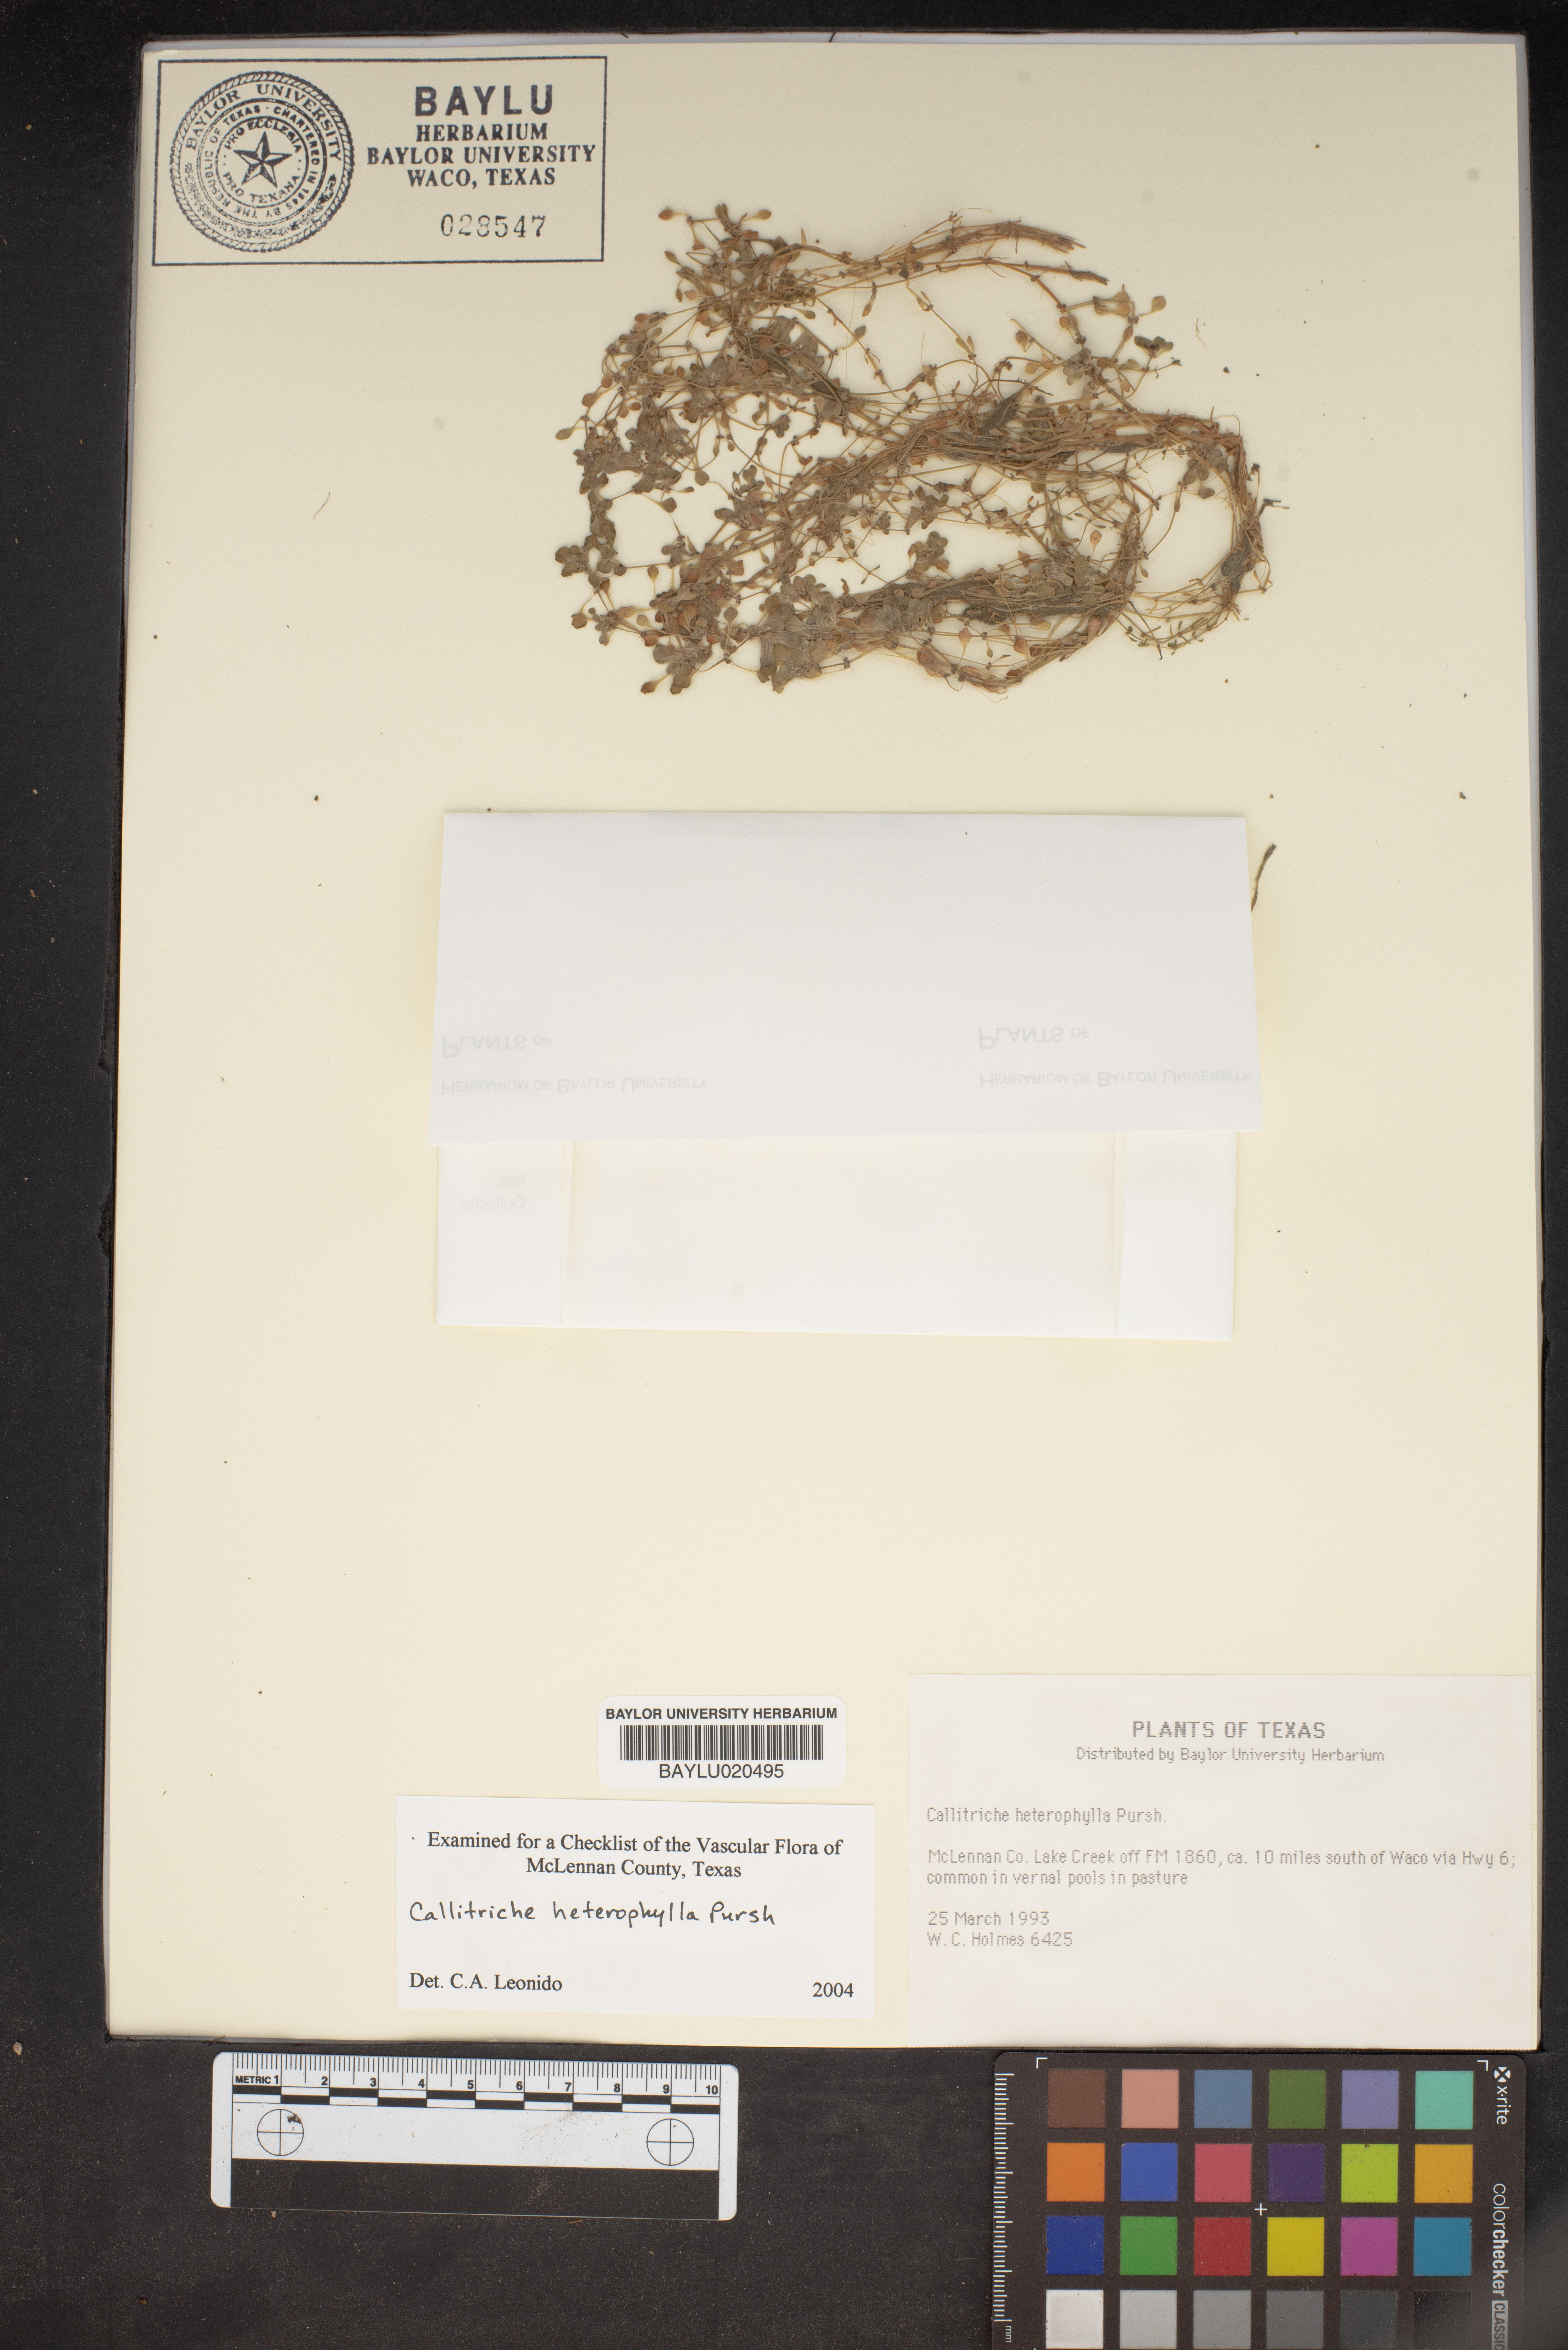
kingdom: Plantae
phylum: Tracheophyta
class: Magnoliopsida
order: Lamiales
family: Plantaginaceae
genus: Callitriche
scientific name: Callitriche heterophylla
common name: Two-headed water-starwort
